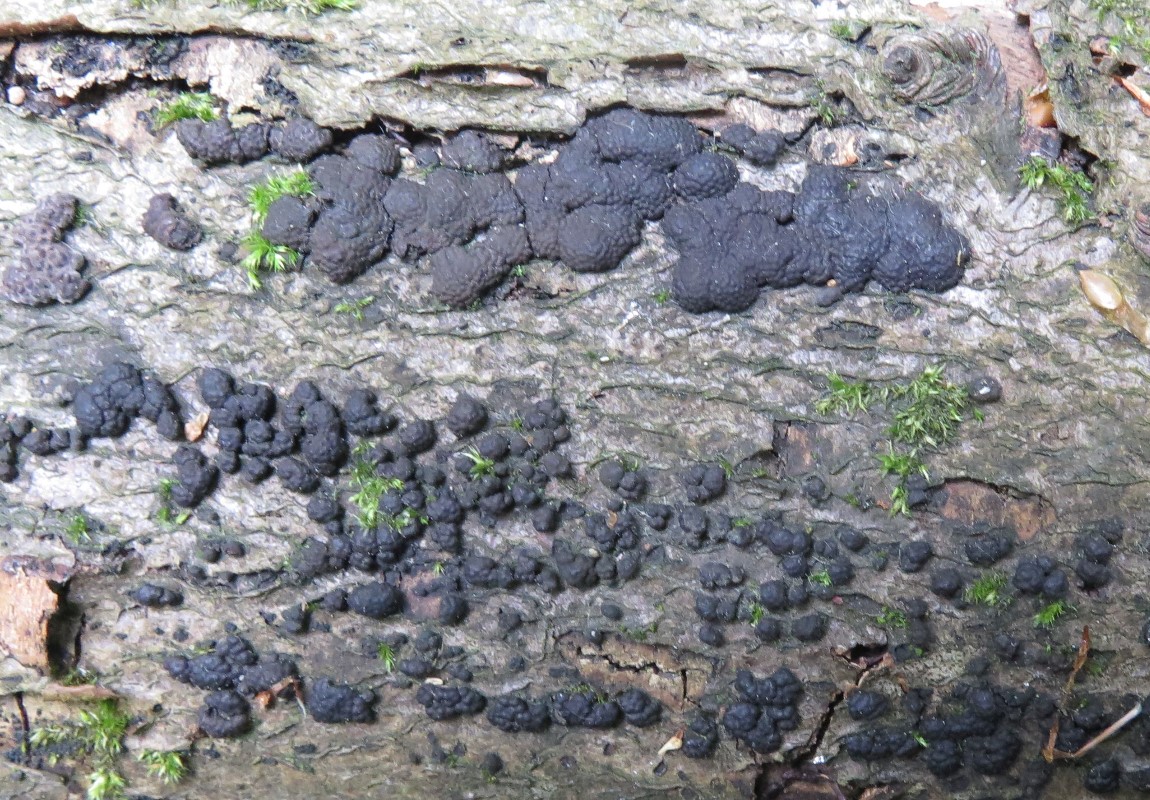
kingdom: Fungi
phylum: Ascomycota
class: Sordariomycetes
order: Xylariales
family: Hypoxylaceae
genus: Jackrogersella
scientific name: Jackrogersella cohaerens
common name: sammenflydende kulbær
